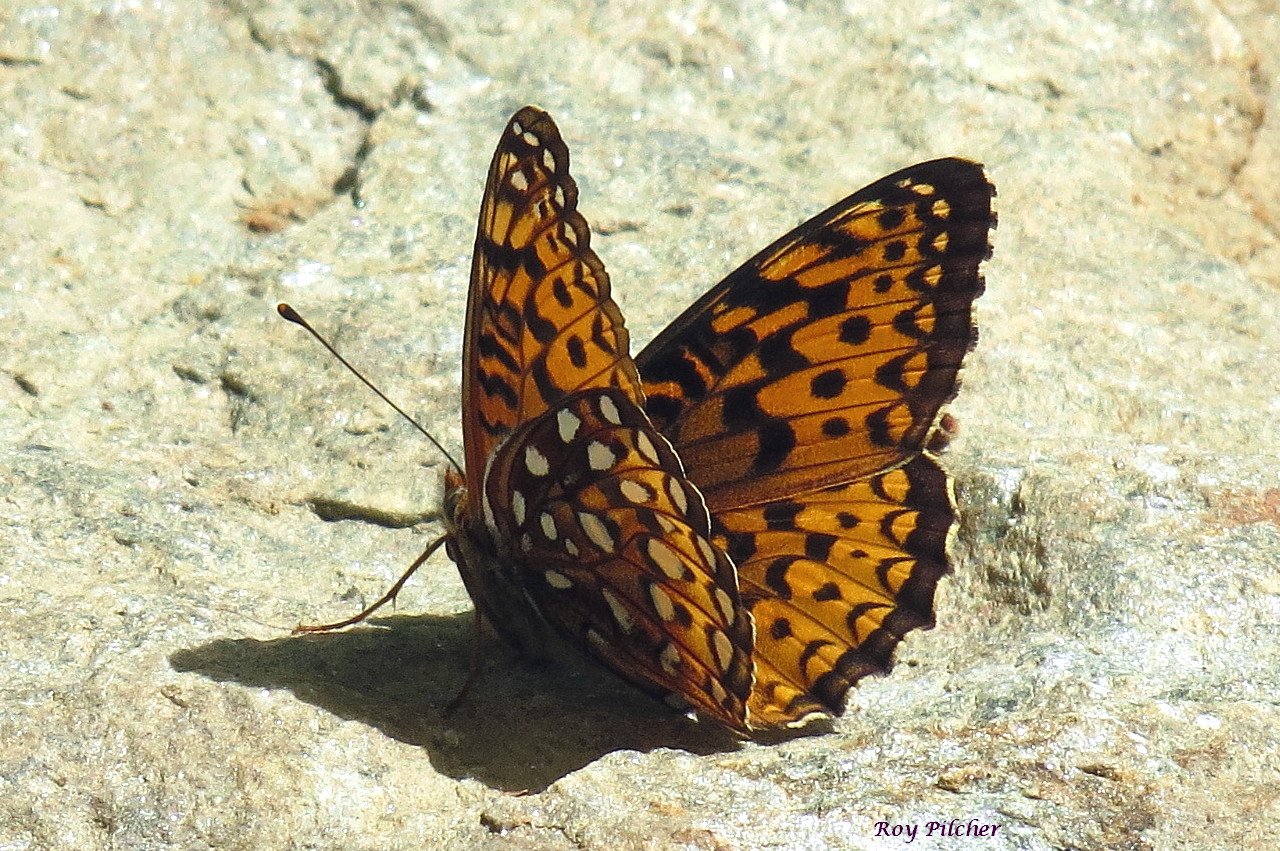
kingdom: Animalia
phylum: Arthropoda
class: Insecta
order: Lepidoptera
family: Nymphalidae
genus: Speyeria
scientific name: Speyeria atlantis
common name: Atlantis Fritillary
